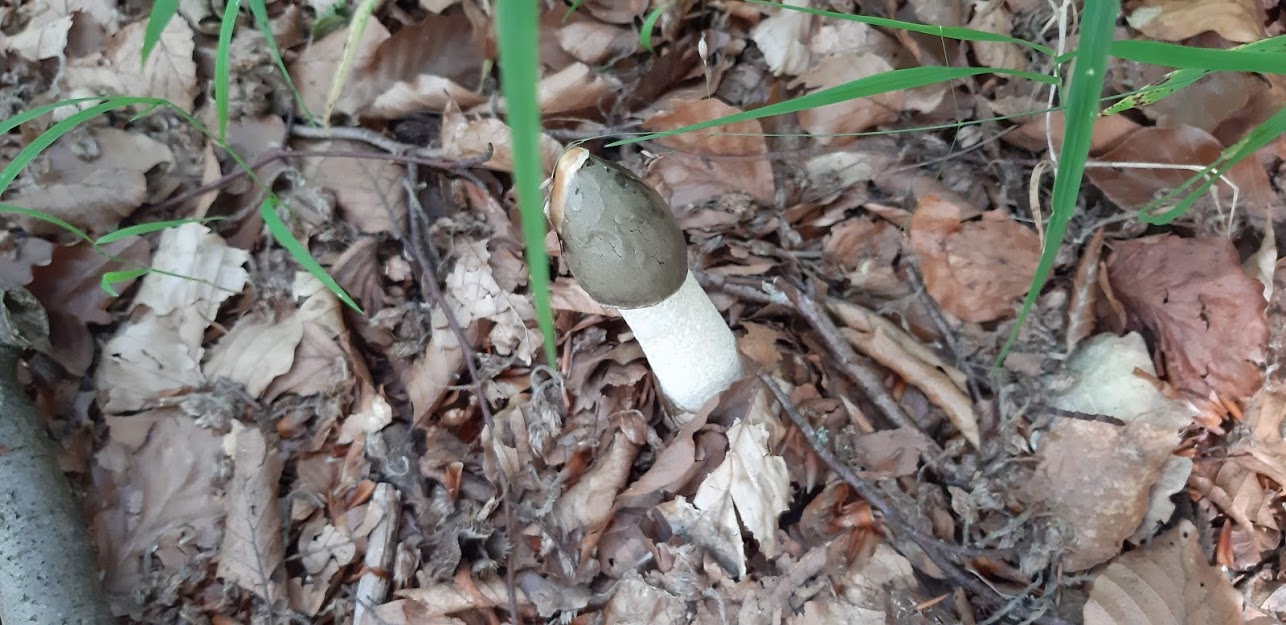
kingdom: Fungi
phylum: Basidiomycota
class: Agaricomycetes
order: Phallales
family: Phallaceae
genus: Phallus
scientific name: Phallus impudicus
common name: almindelig stinksvamp
